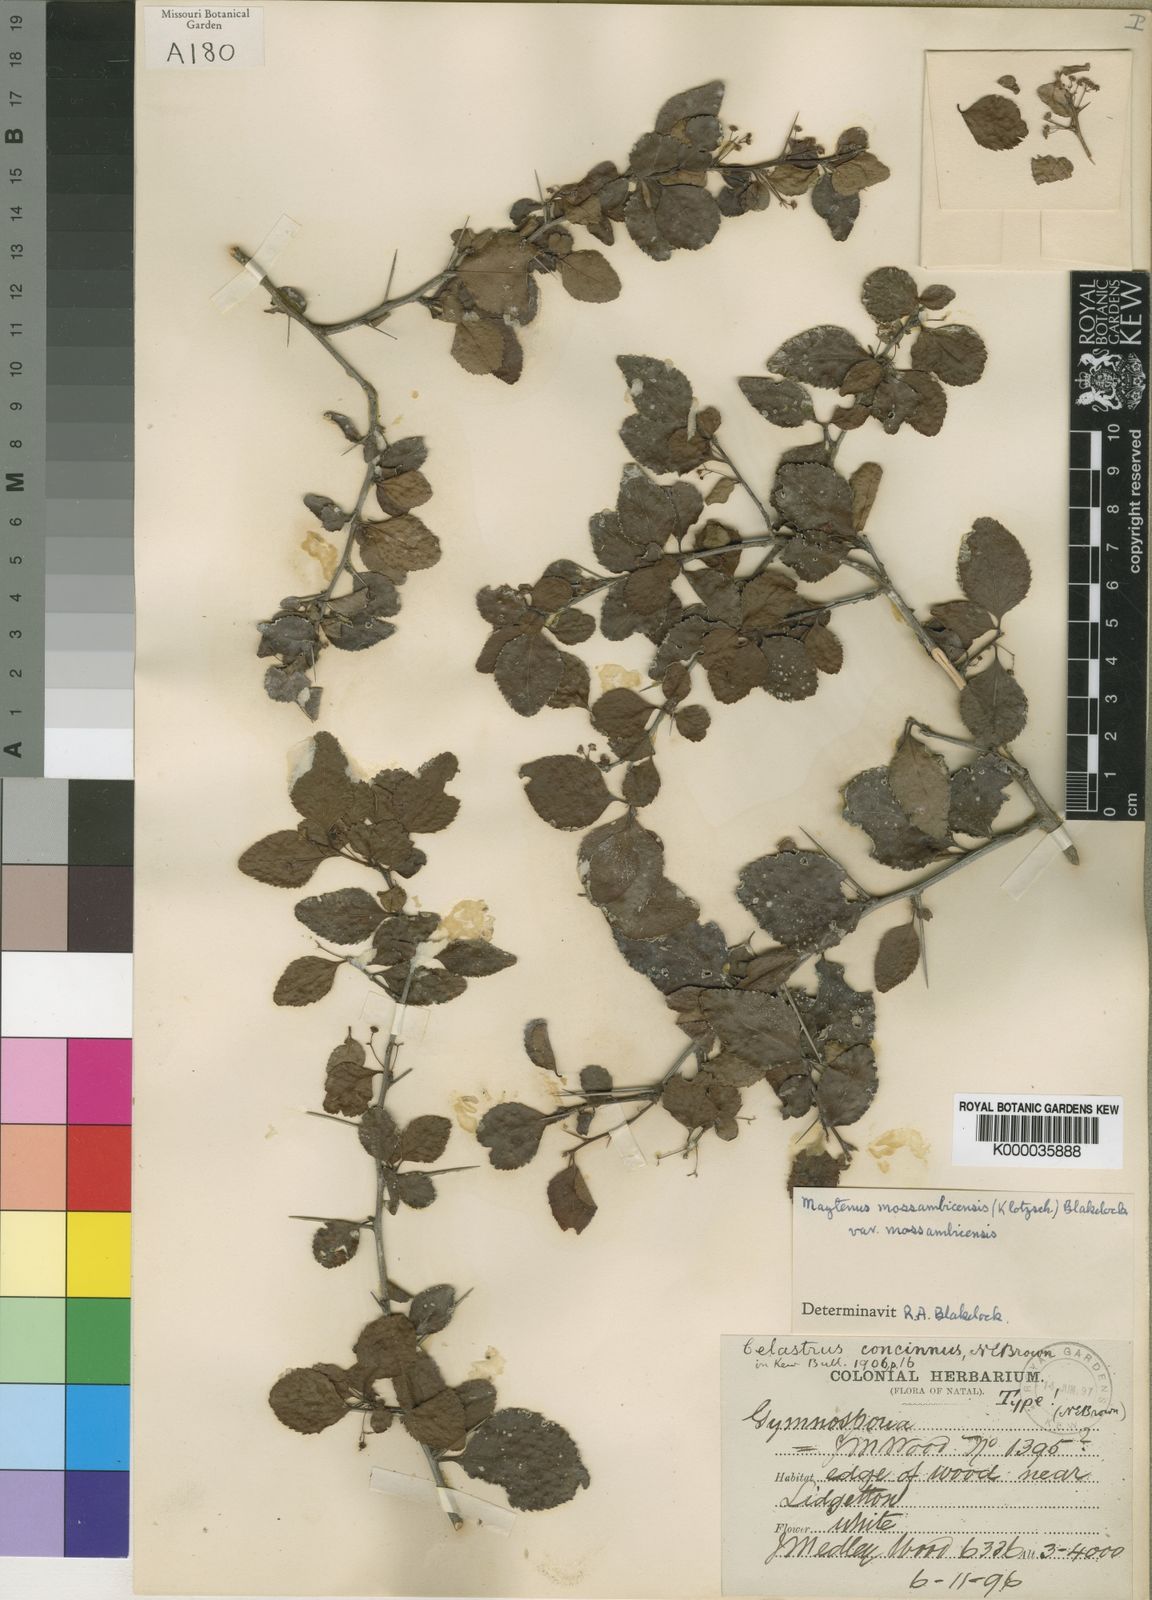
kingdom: Plantae
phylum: Tracheophyta
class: Magnoliopsida
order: Celastrales
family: Celastraceae
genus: Gymnosporia
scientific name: Gymnosporia mossambicensis
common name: Black forest spike-thorn
